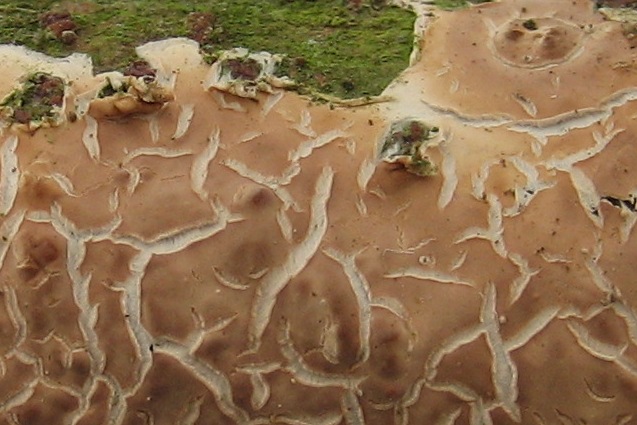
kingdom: Fungi
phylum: Basidiomycota
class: Agaricomycetes
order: Agaricales
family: Physalacriaceae
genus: Cylindrobasidium
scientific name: Cylindrobasidium evolvens
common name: sprækkehinde
